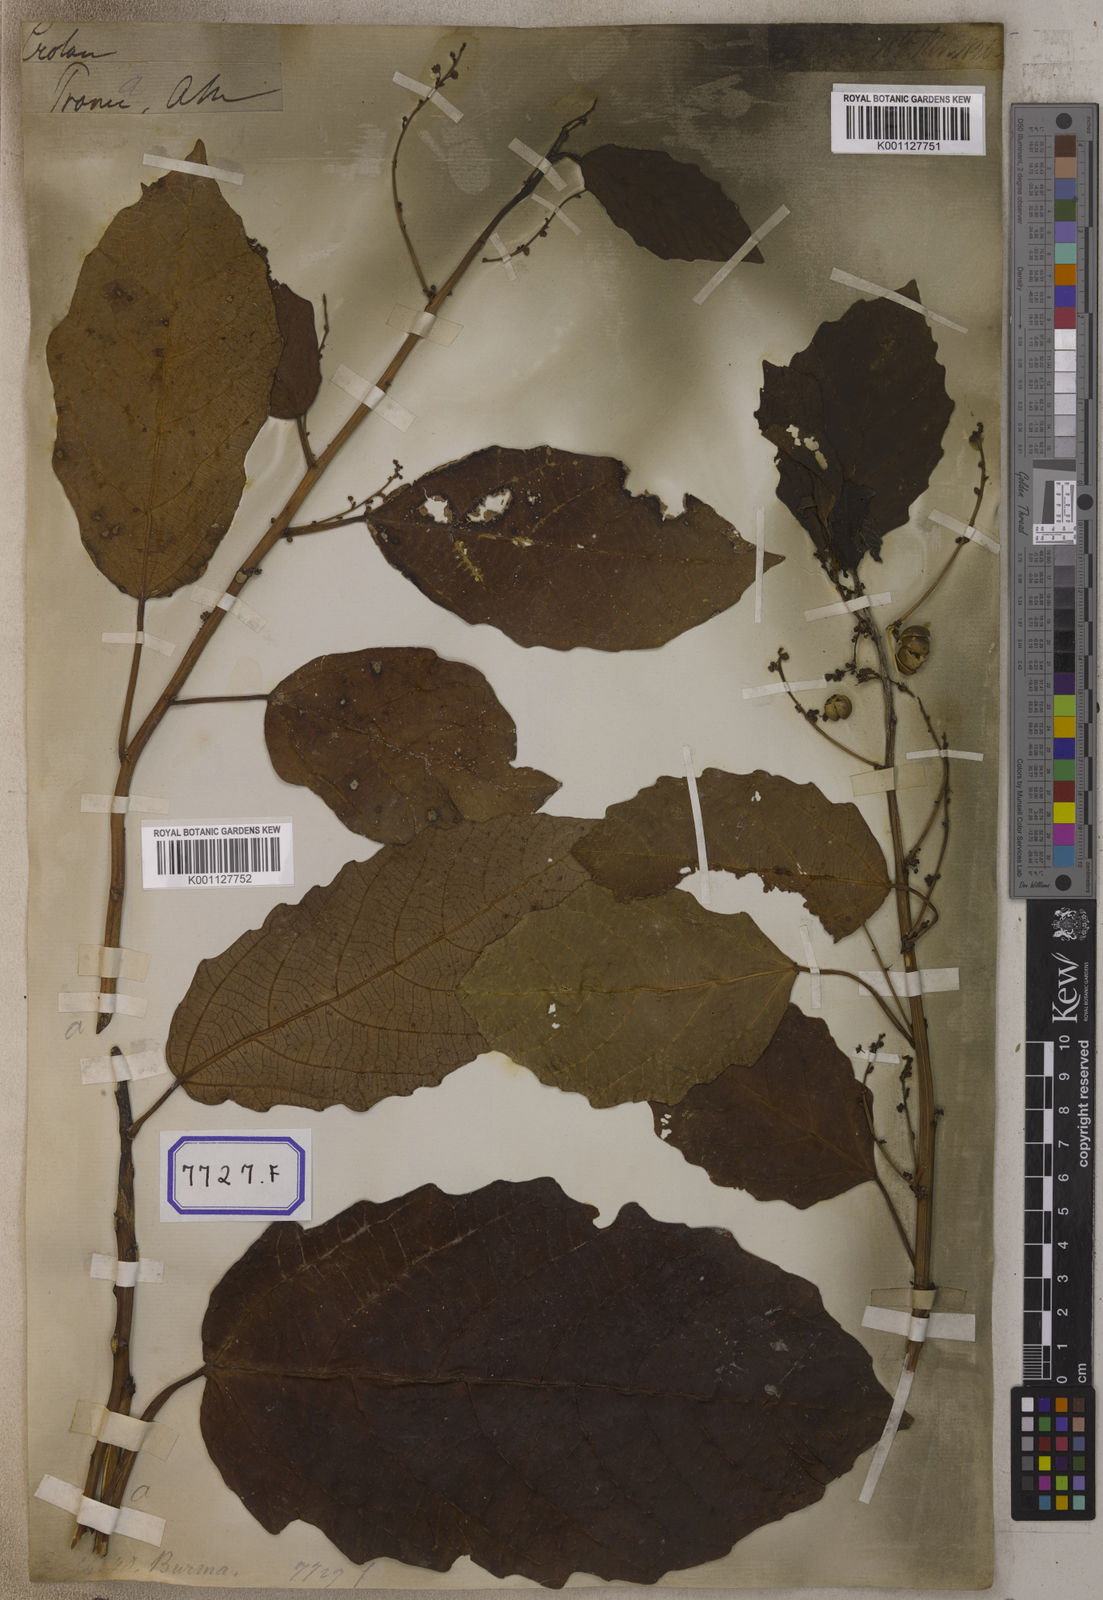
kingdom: Plantae
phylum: Tracheophyta
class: Magnoliopsida
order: Malpighiales
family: Euphorbiaceae
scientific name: Euphorbiaceae
